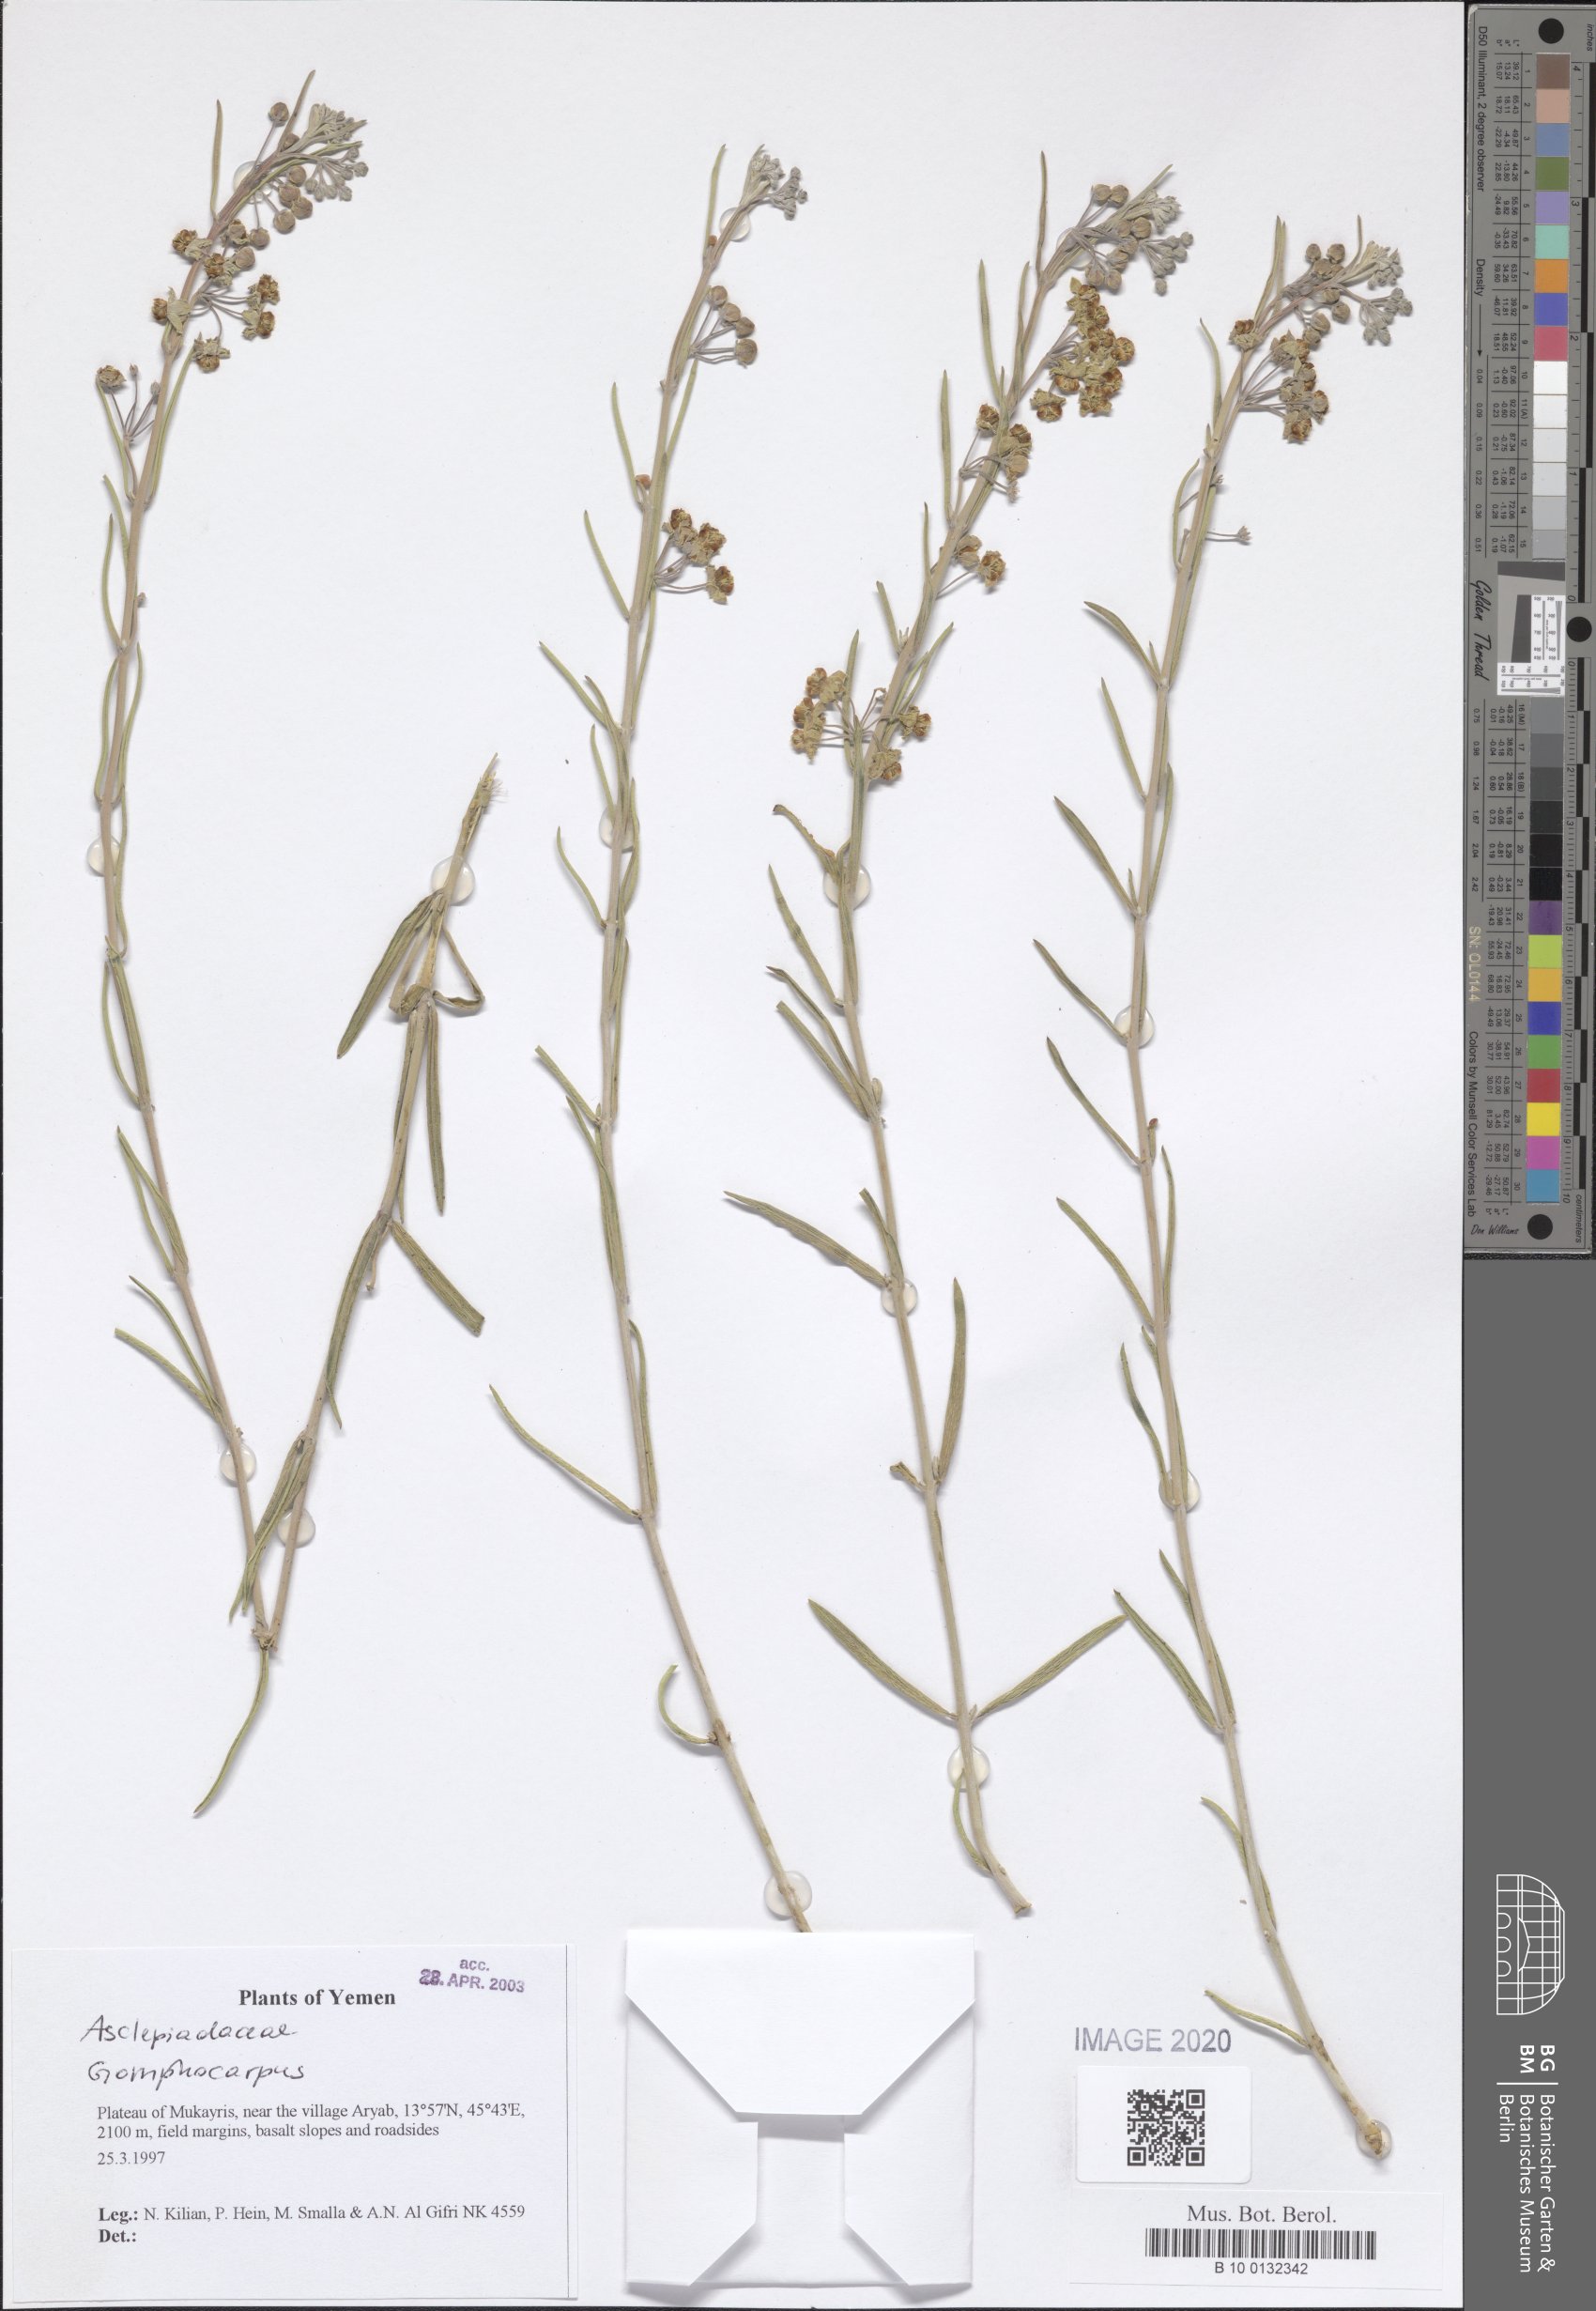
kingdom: Plantae
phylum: Tracheophyta
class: Magnoliopsida
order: Gentianales
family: Apocynaceae
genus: Gomphocarpus
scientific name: Gomphocarpus
